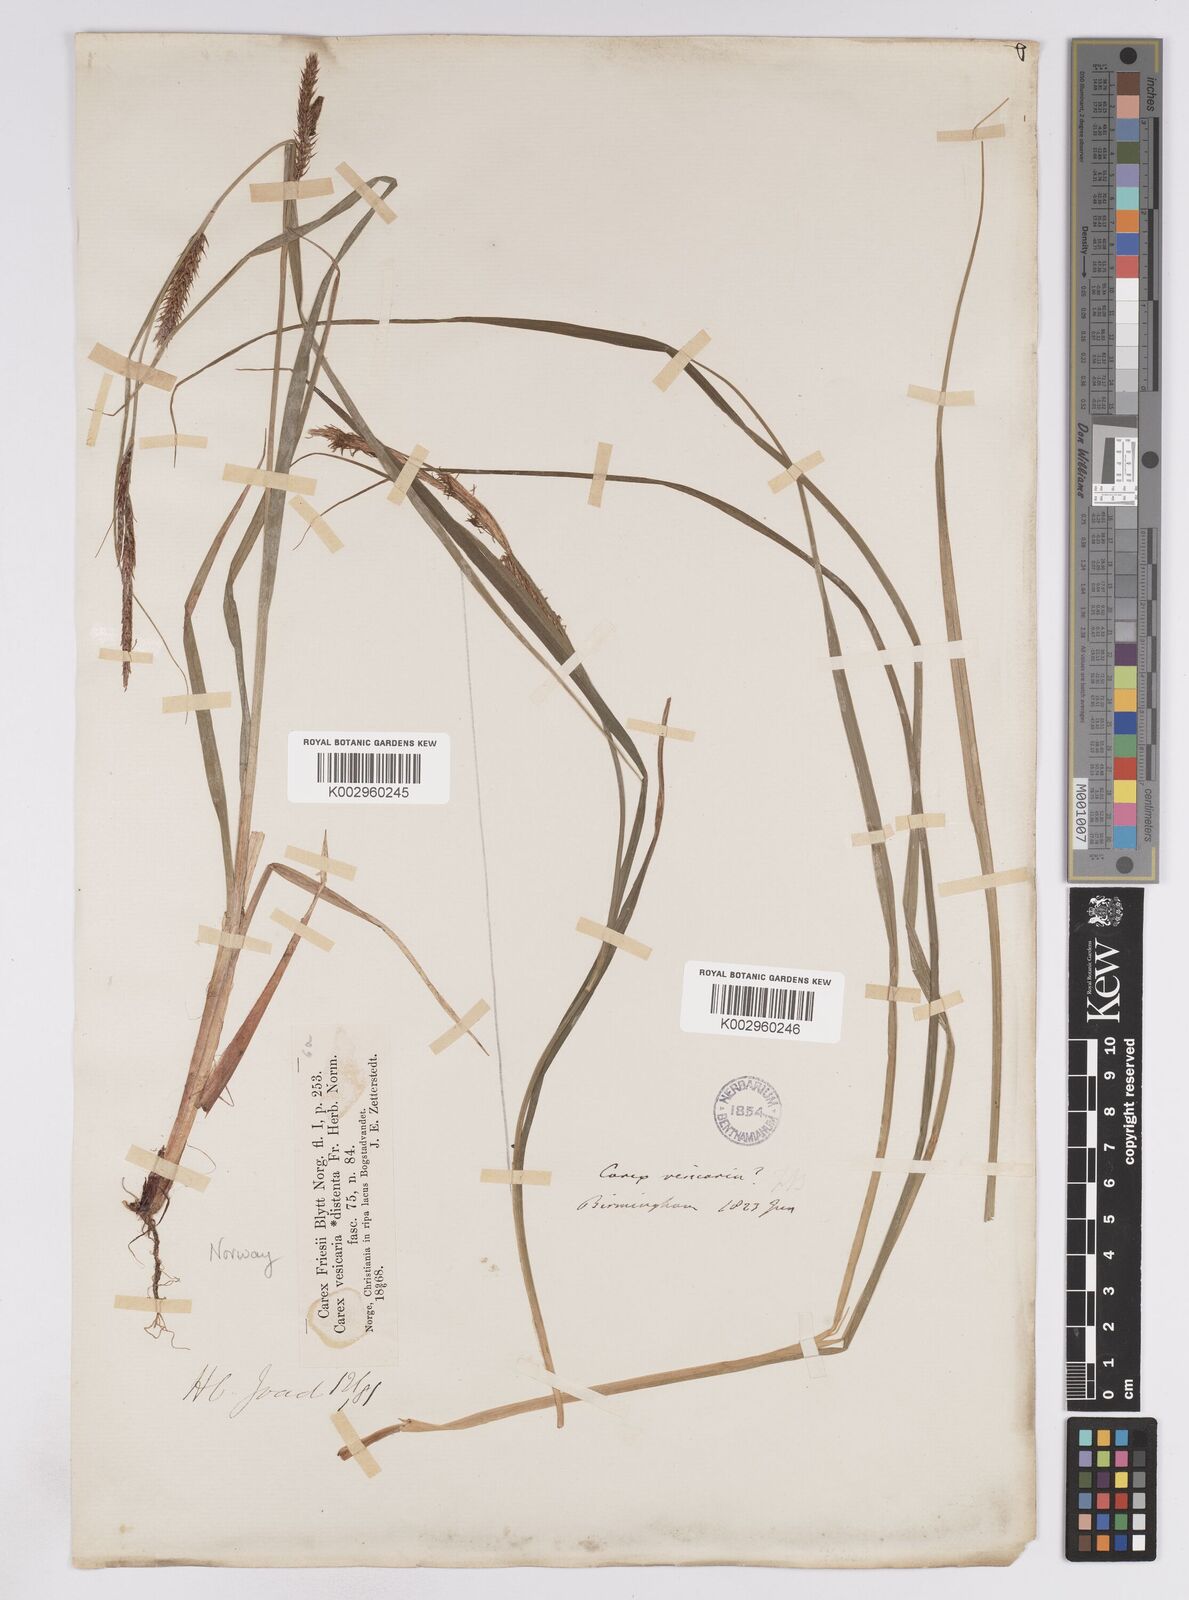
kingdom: Plantae
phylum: Tracheophyta
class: Liliopsida
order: Poales
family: Cyperaceae
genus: Carex
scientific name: Carex vesicaria
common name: Bladder-sedge
